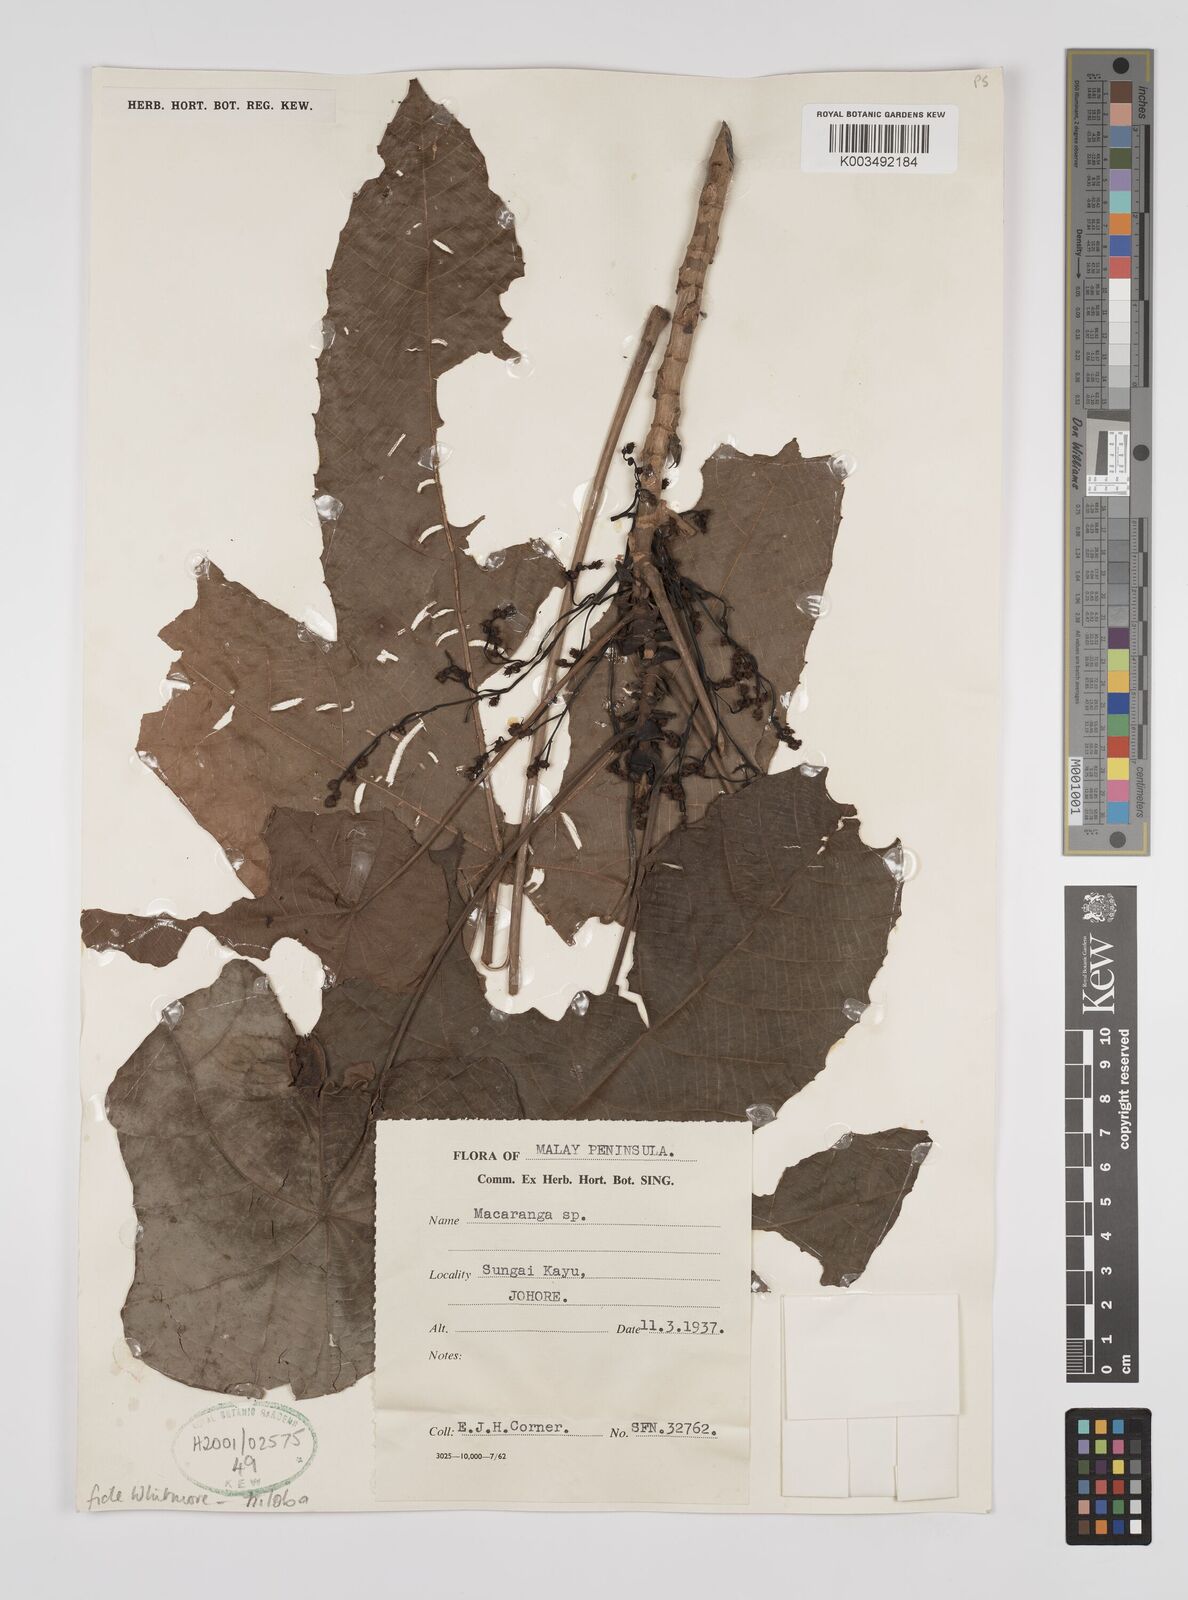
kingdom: Plantae
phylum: Tracheophyta
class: Magnoliopsida
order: Malpighiales
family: Euphorbiaceae
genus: Macaranga
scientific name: Macaranga triloba
